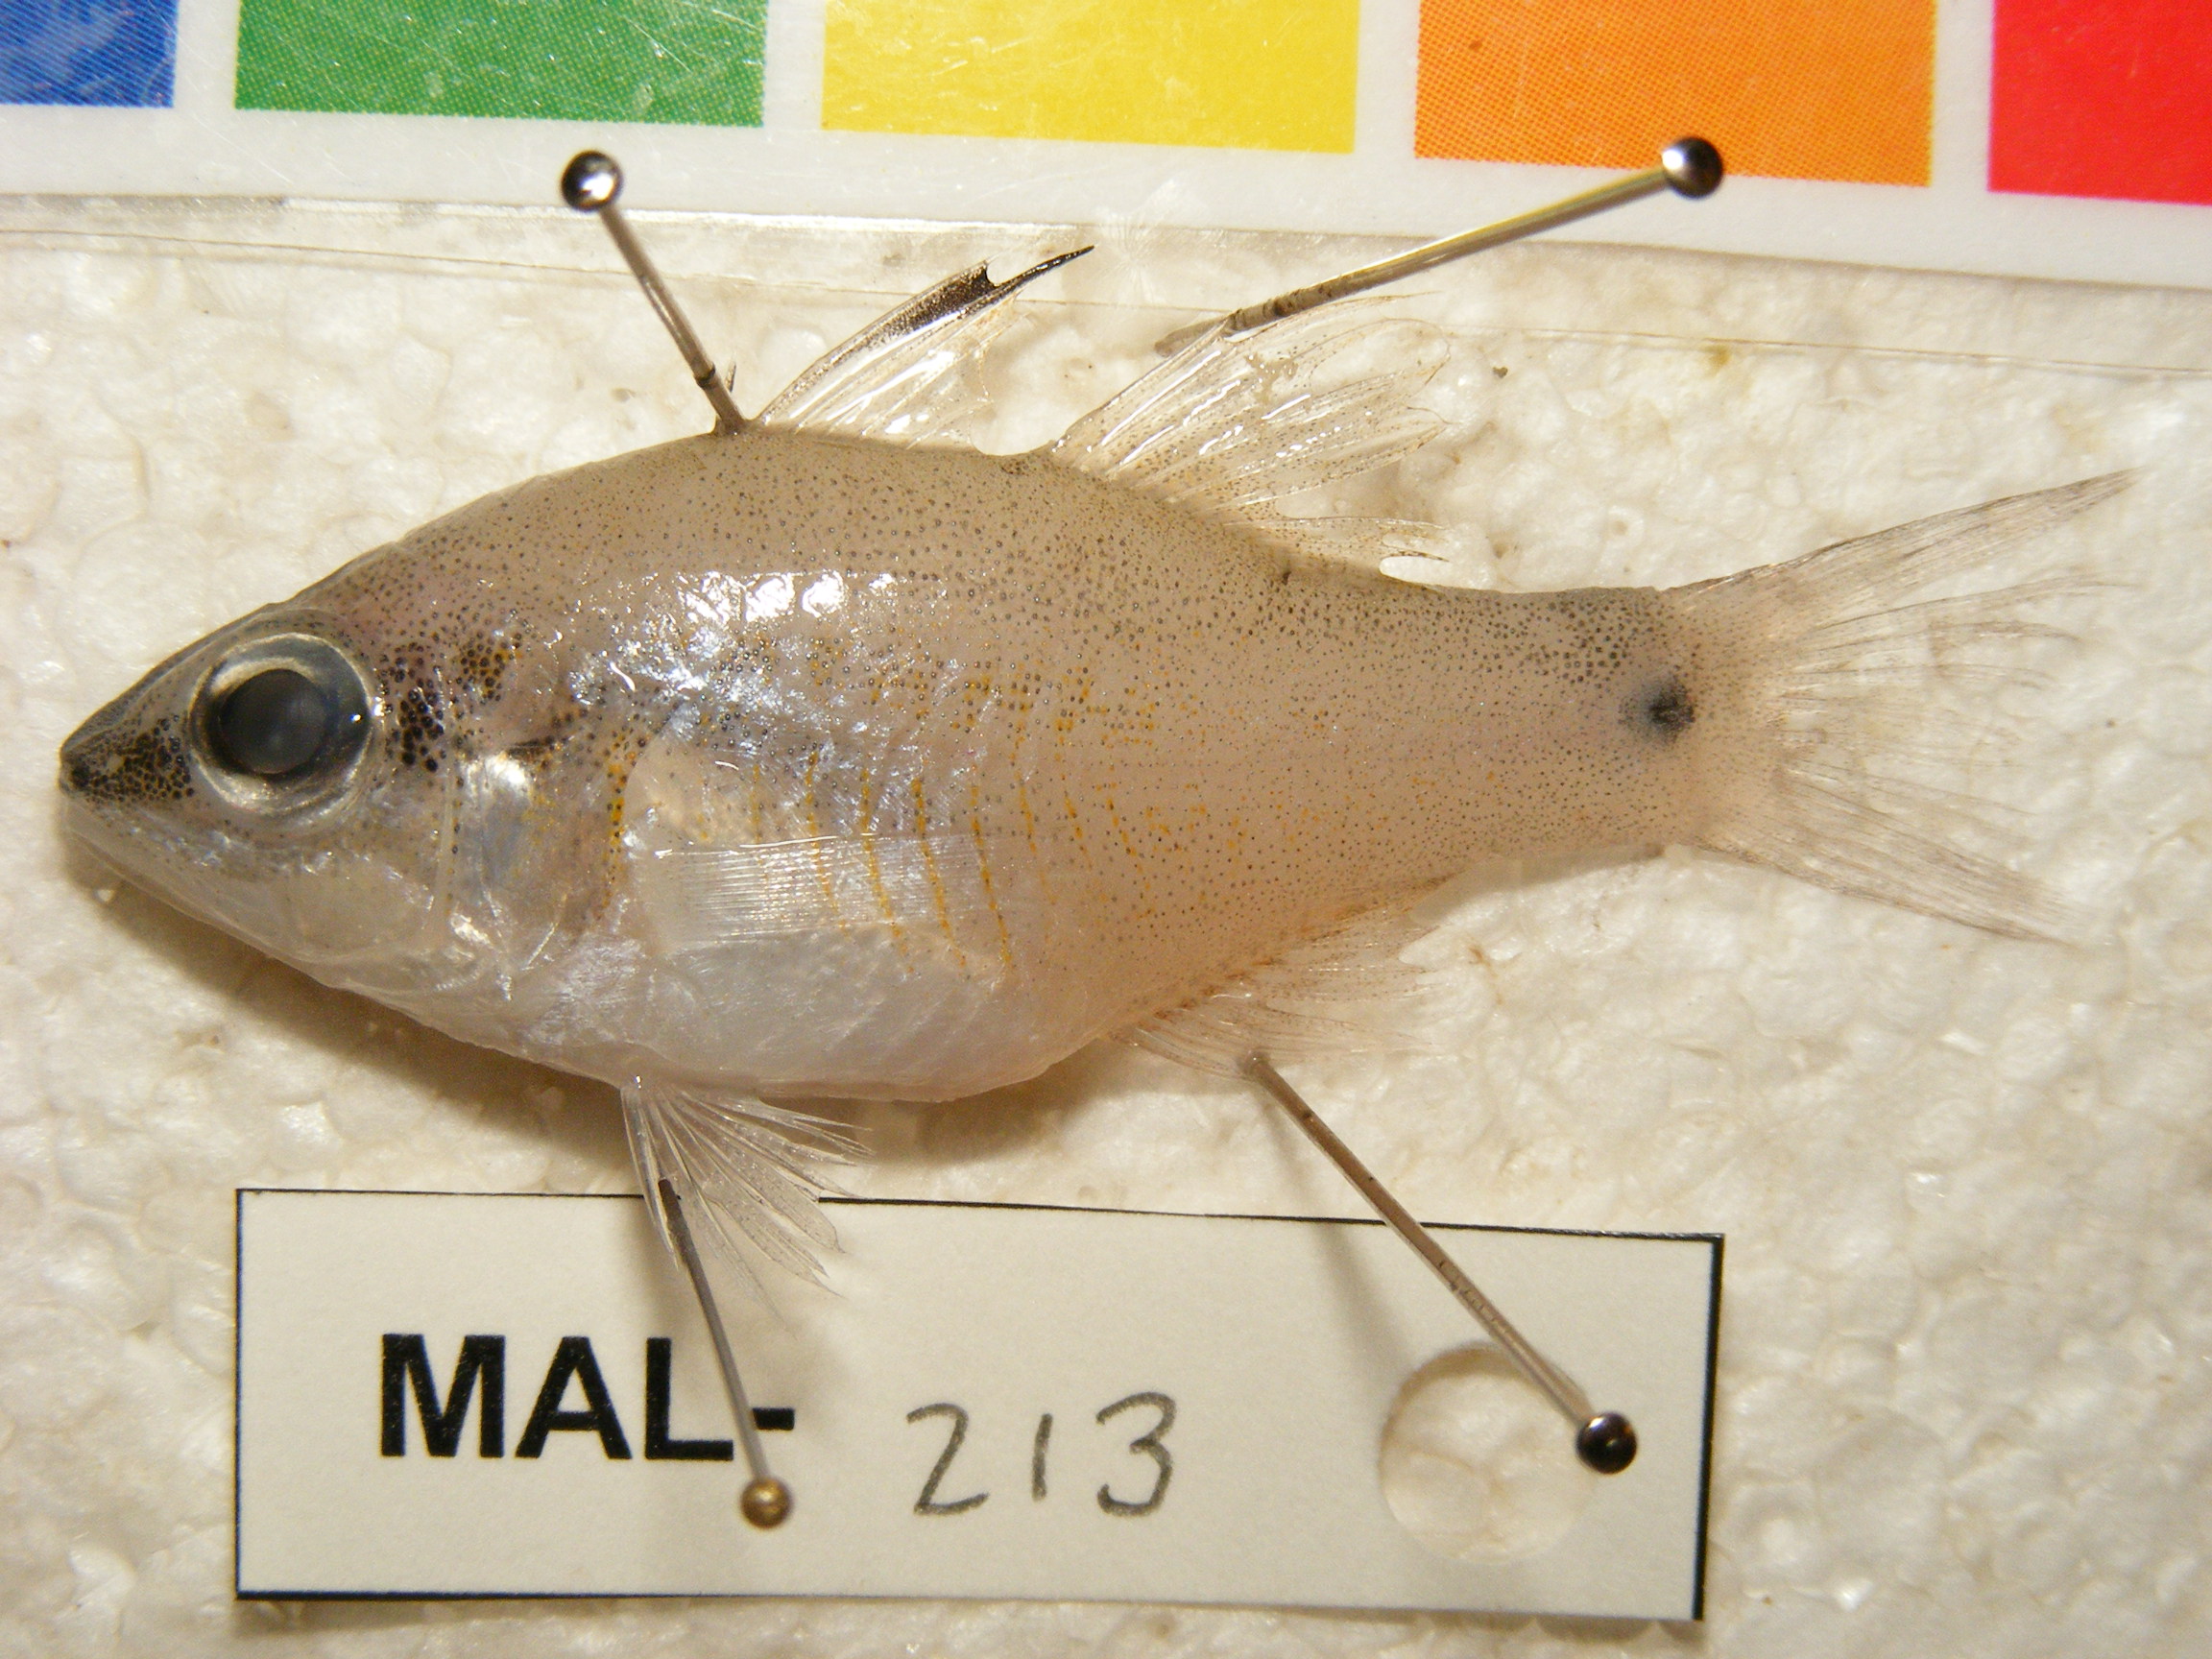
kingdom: Animalia
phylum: Chordata
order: Perciformes
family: Apogonidae
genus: Fibramia
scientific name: Fibramia thermalis
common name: Sangi cardinalfish
